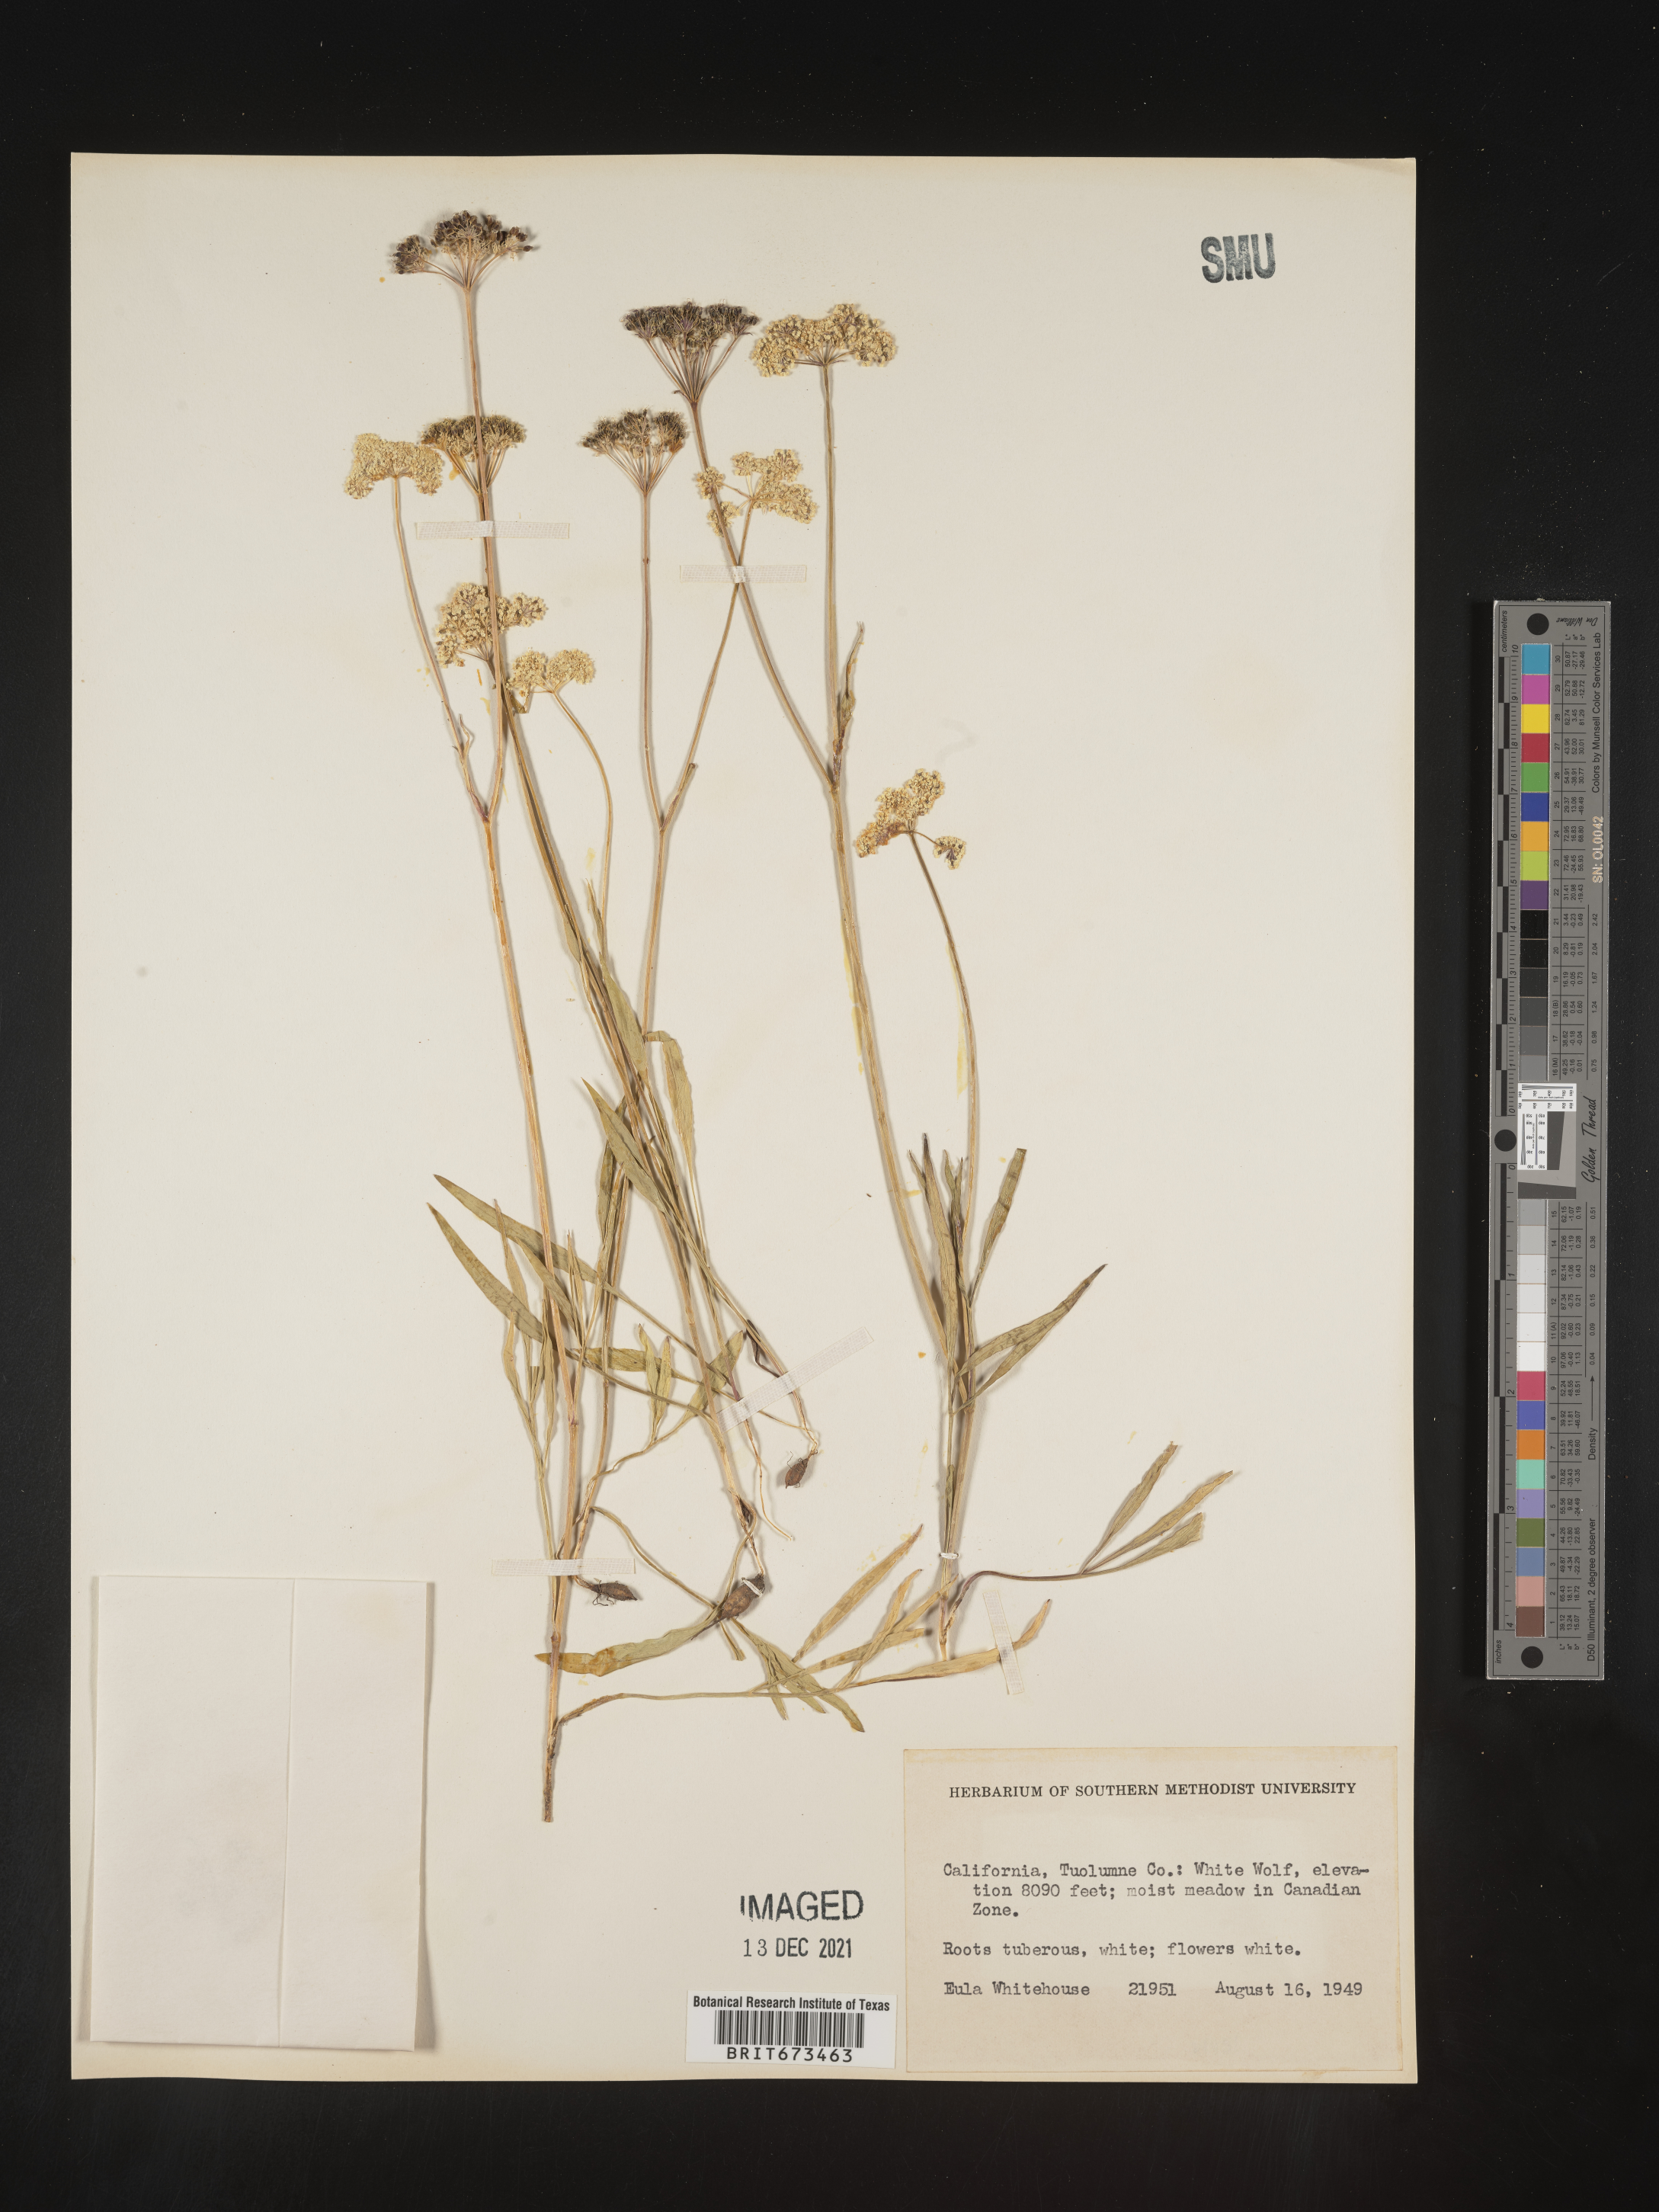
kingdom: Plantae
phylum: Tracheophyta
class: Magnoliopsida
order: Apiales
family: Apiaceae
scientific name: Apiaceae
